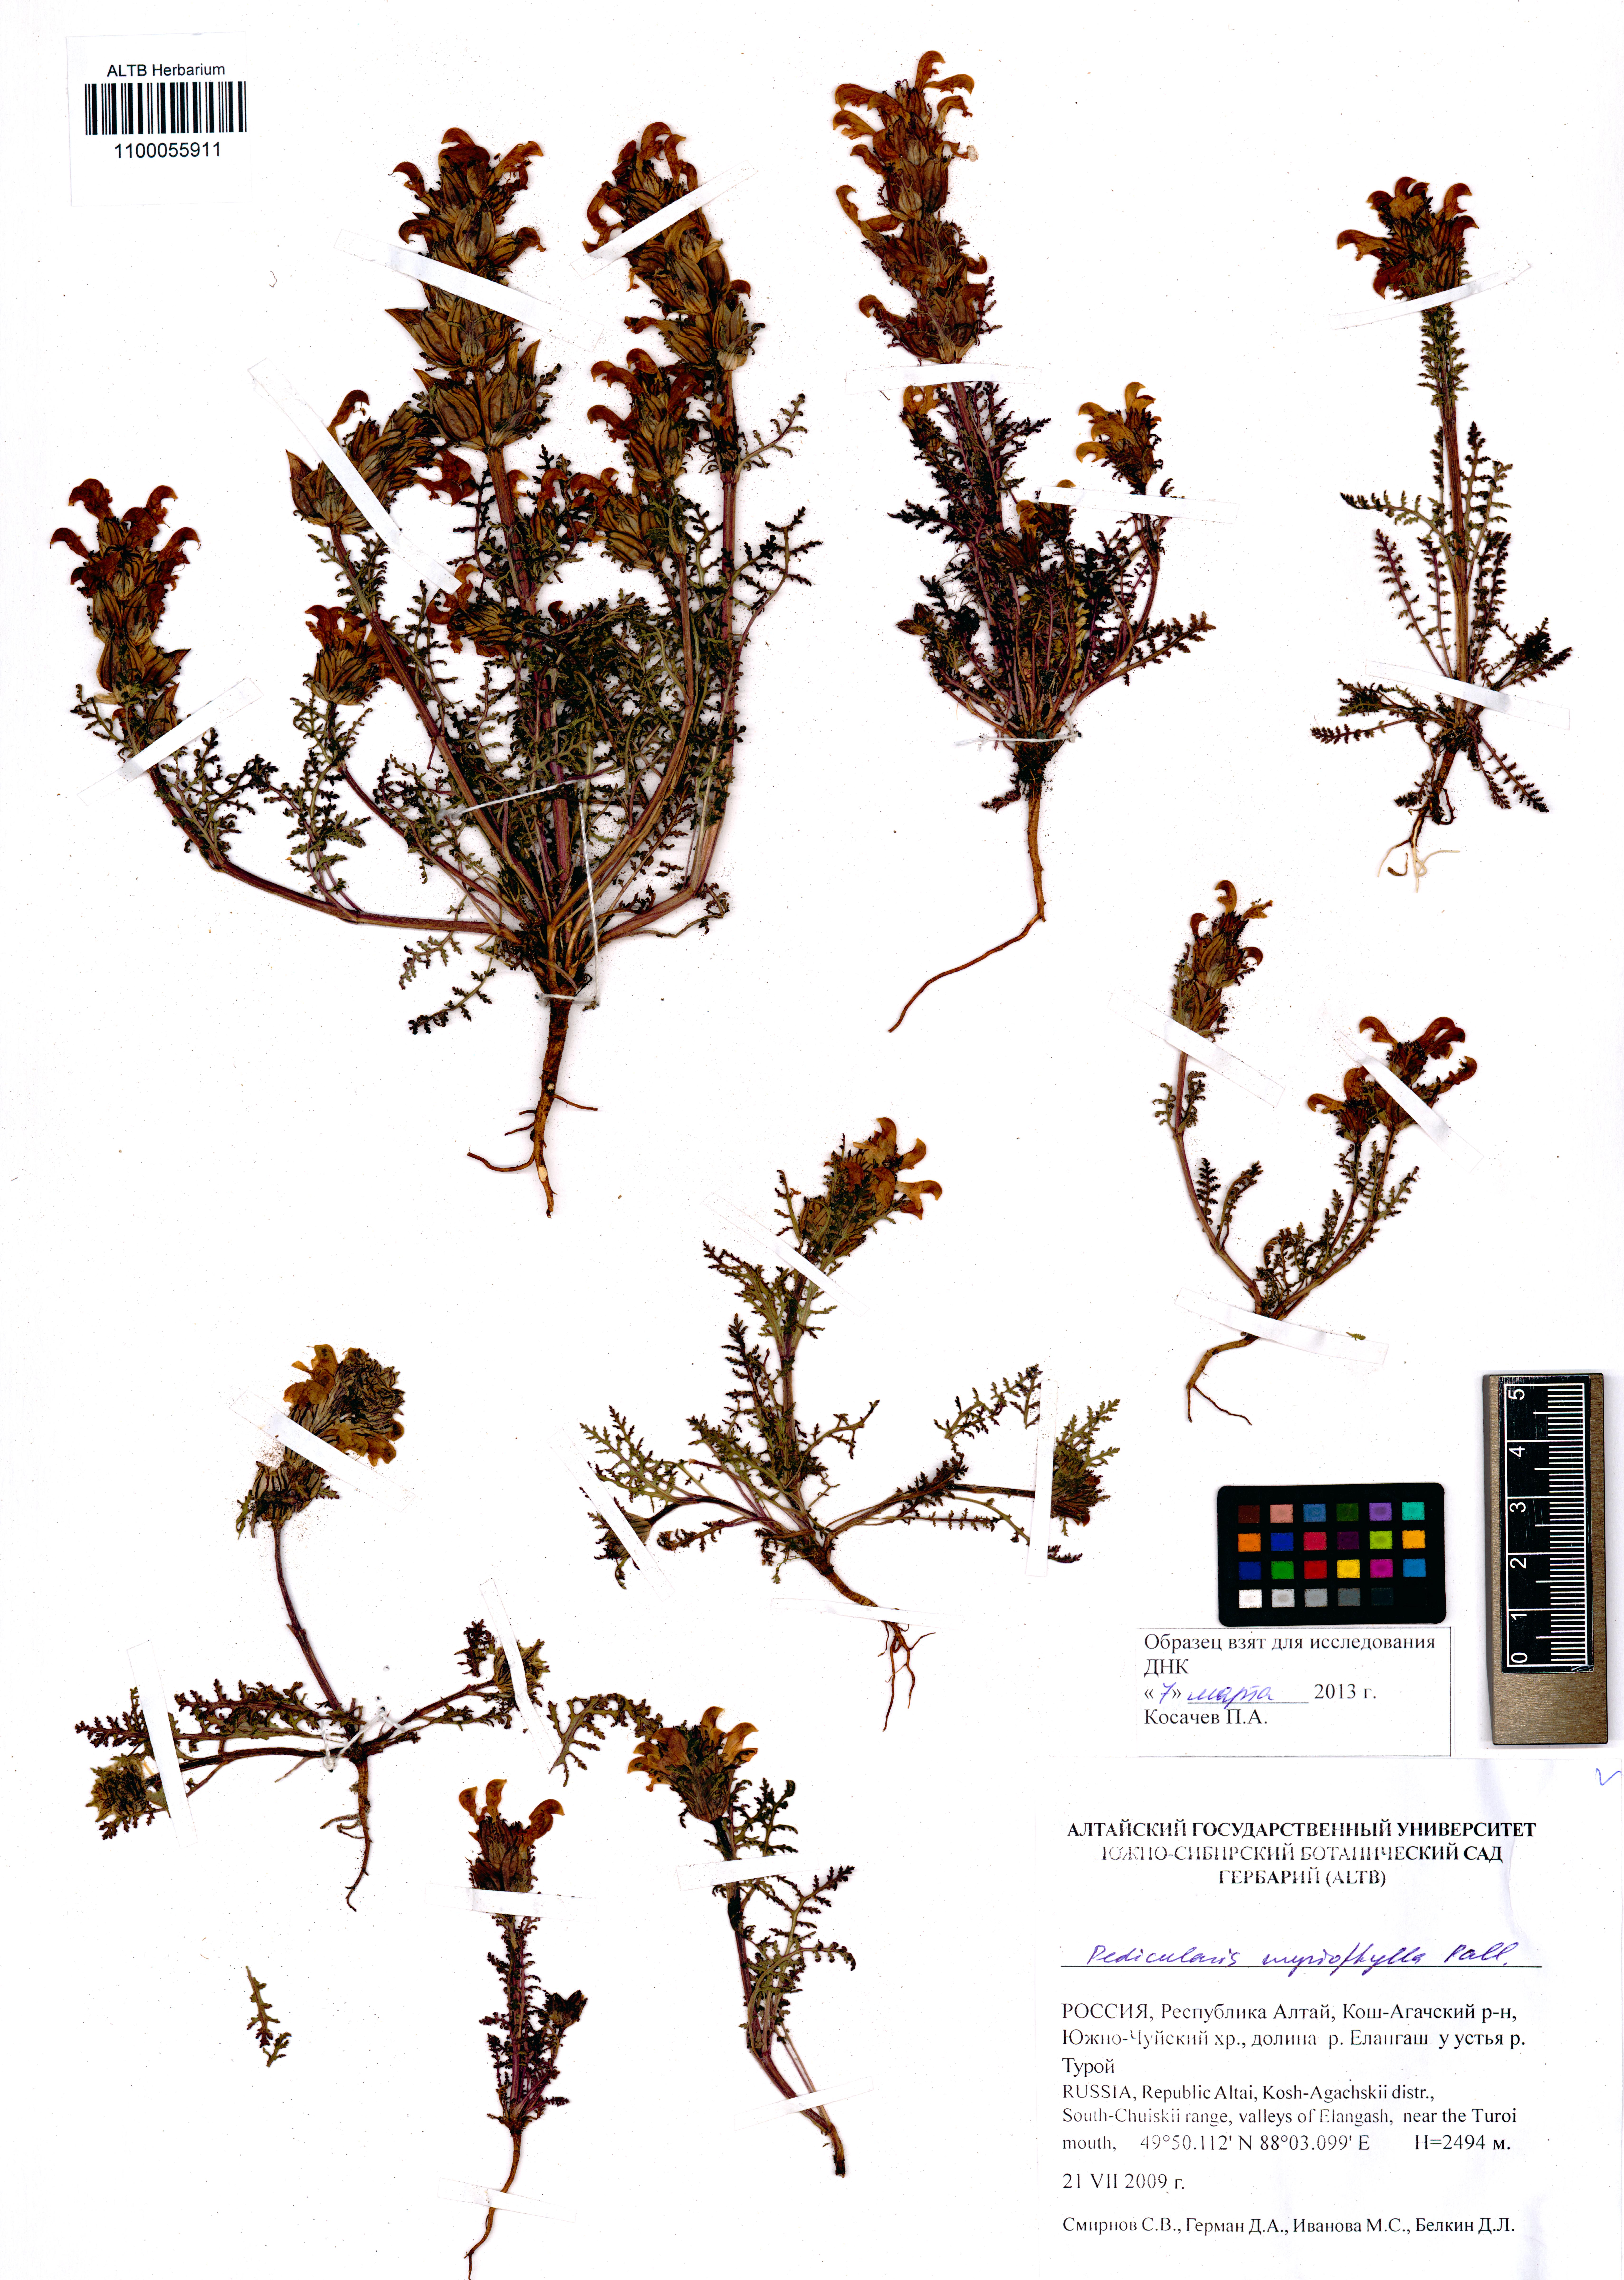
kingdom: Plantae
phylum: Tracheophyta
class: Magnoliopsida
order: Lamiales
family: Orobanchaceae
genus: Pedicularis
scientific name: Pedicularis myriophylla
